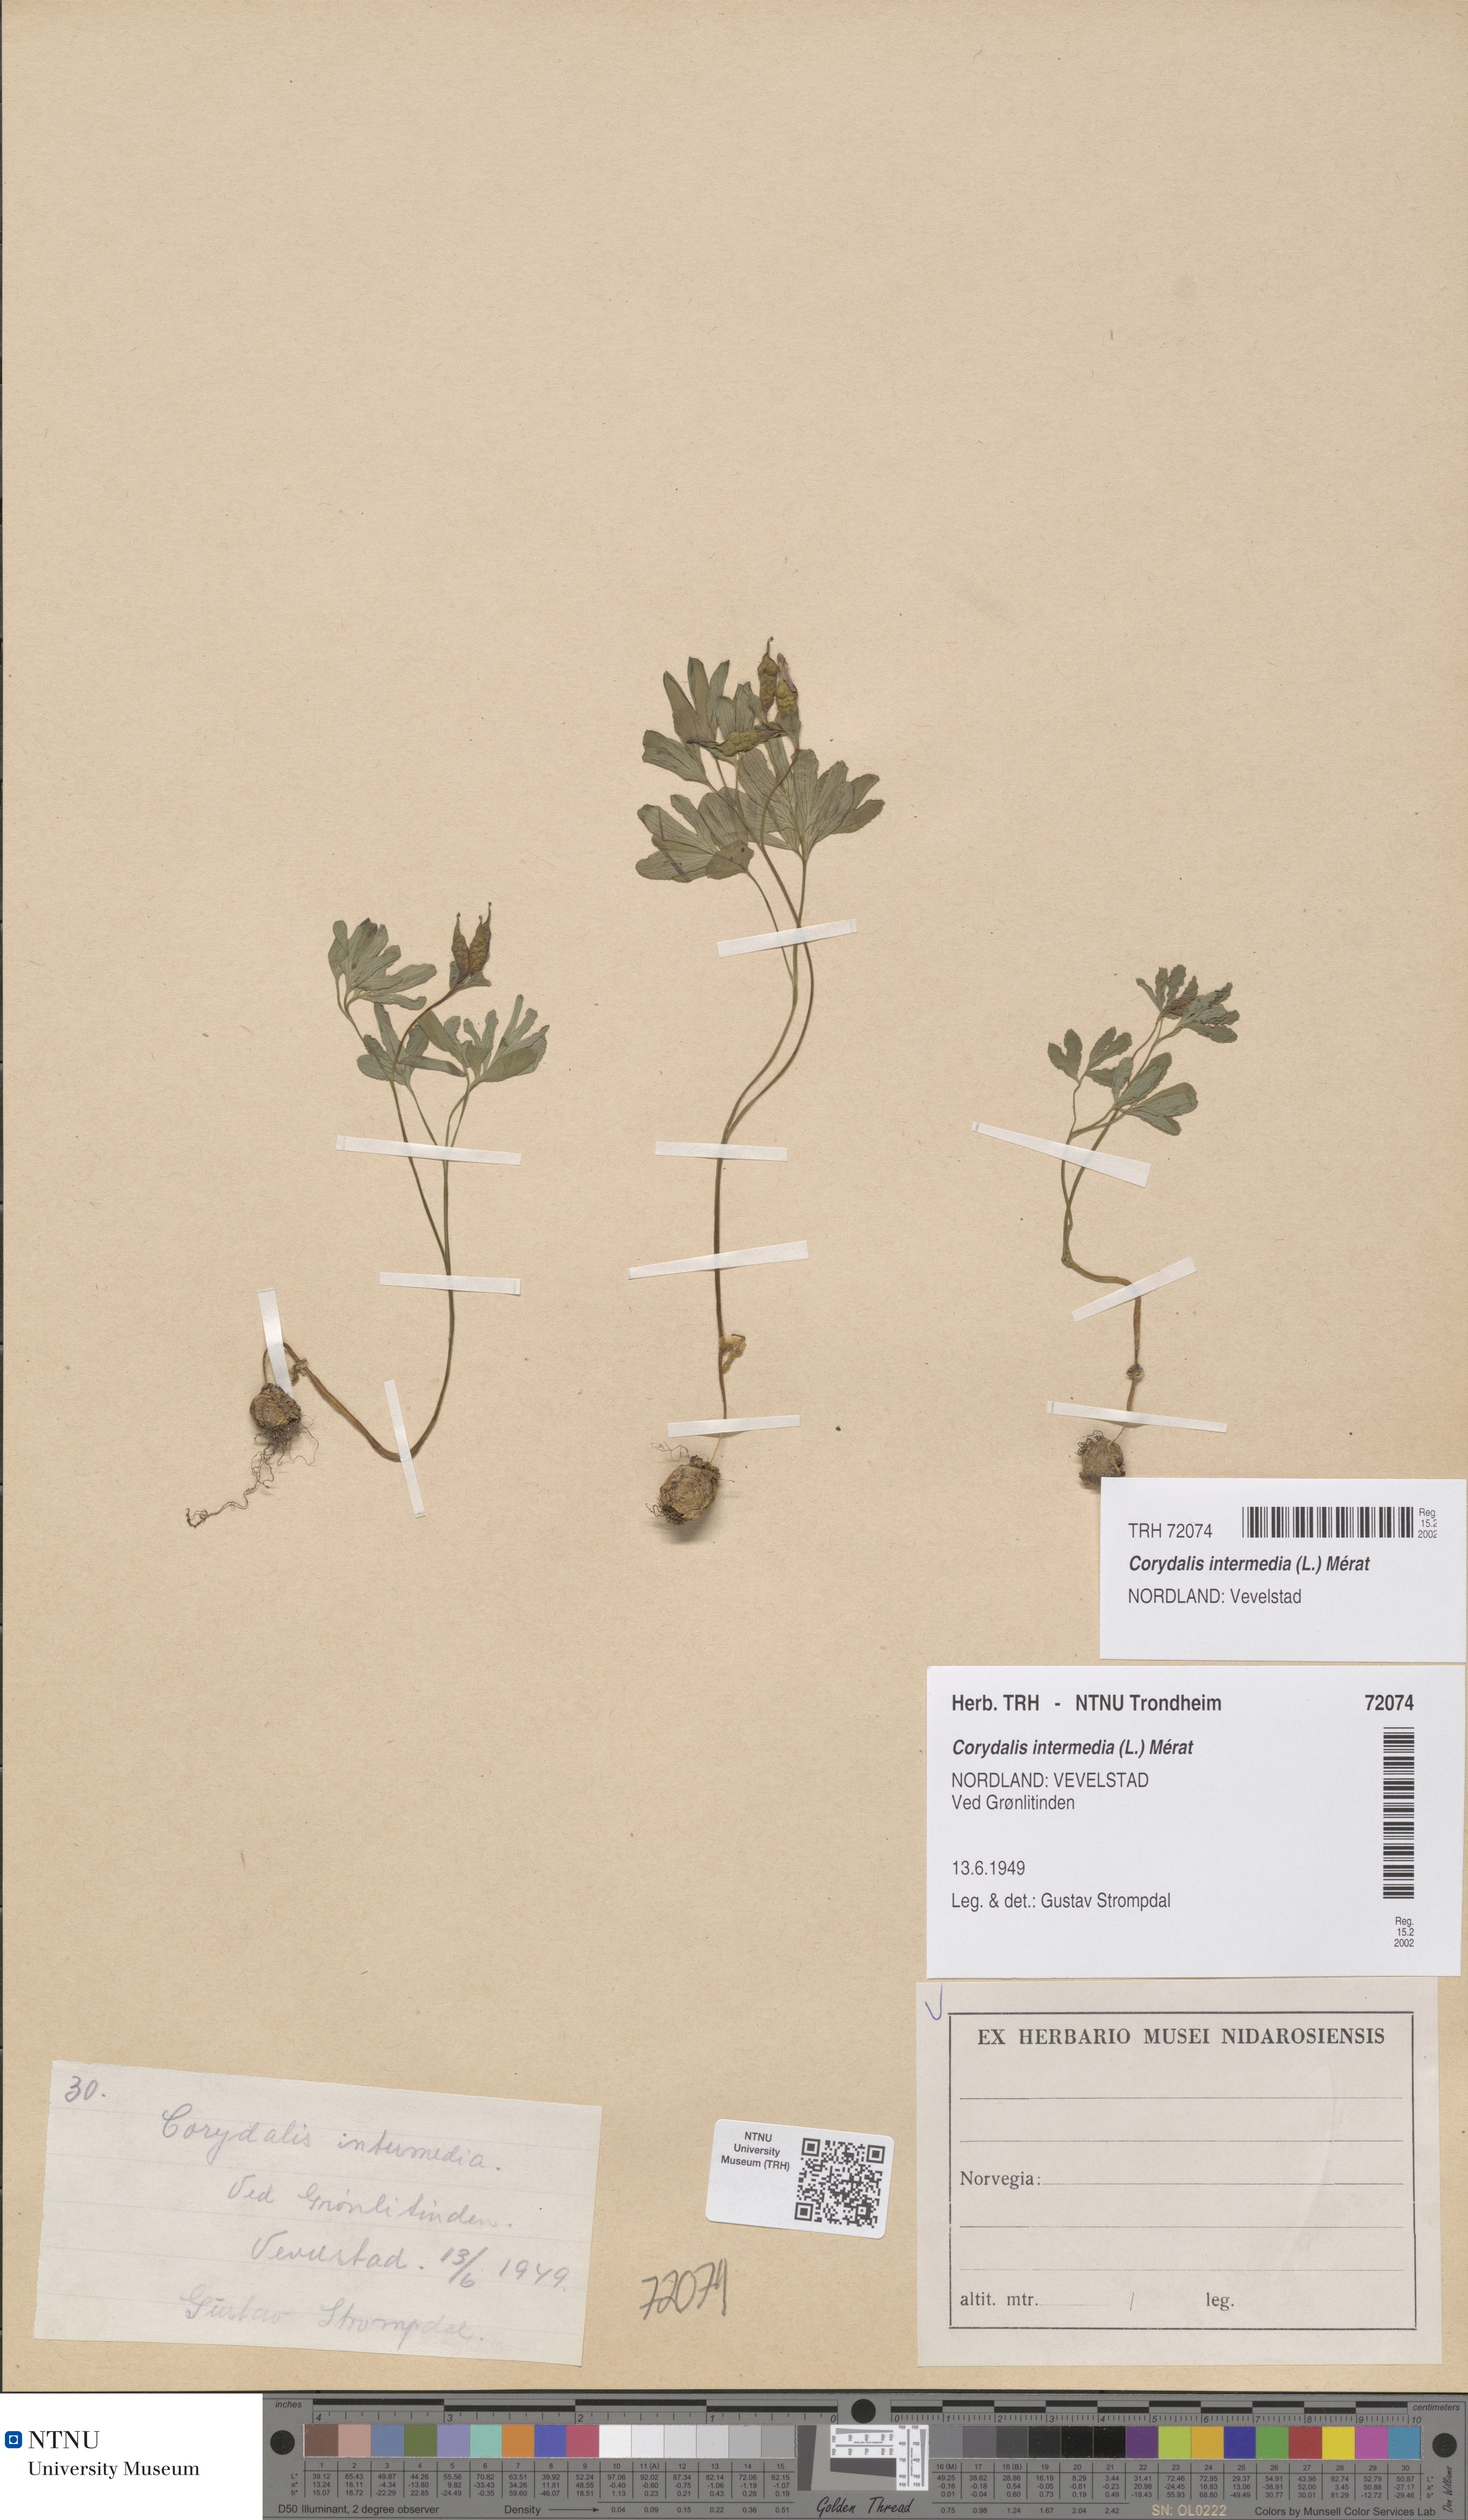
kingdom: Plantae
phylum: Tracheophyta
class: Magnoliopsida
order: Ranunculales
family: Papaveraceae
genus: Corydalis
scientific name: Corydalis intermedia
